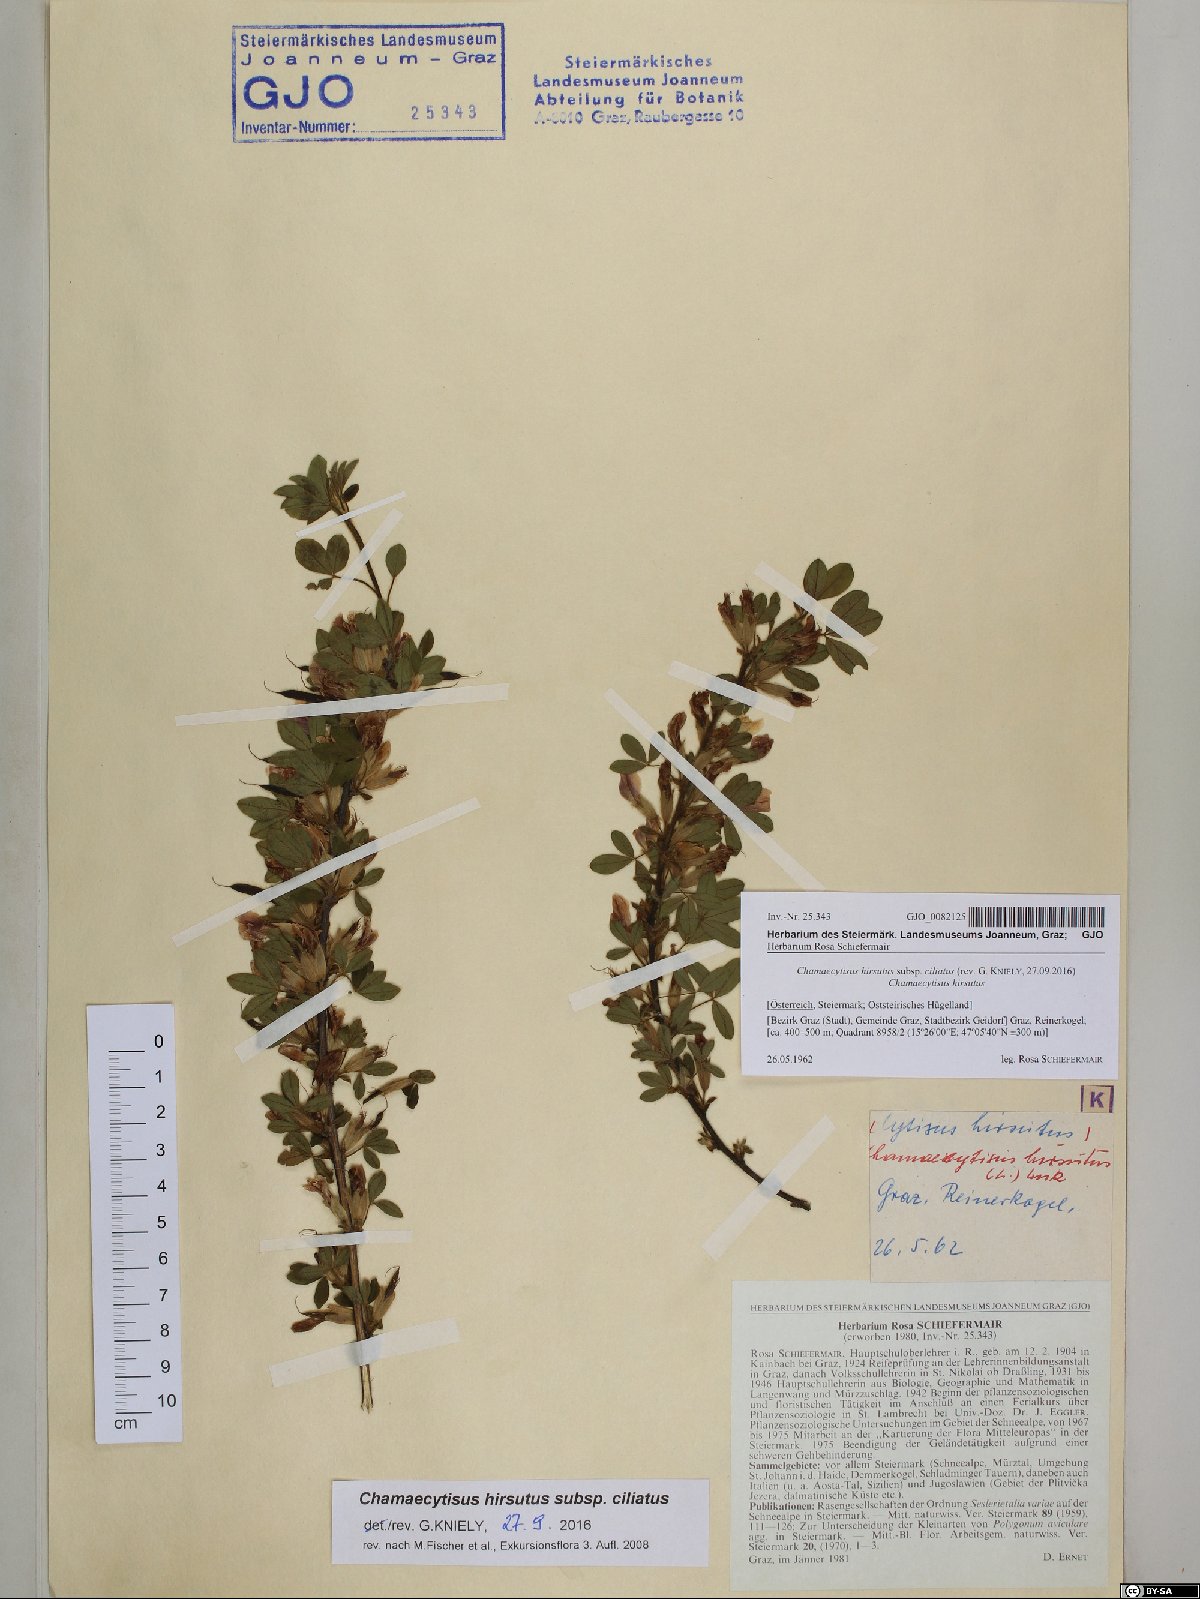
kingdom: Plantae
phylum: Tracheophyta
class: Magnoliopsida
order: Fabales
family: Fabaceae
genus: Chamaecytisus
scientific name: Chamaecytisus hirsutus
